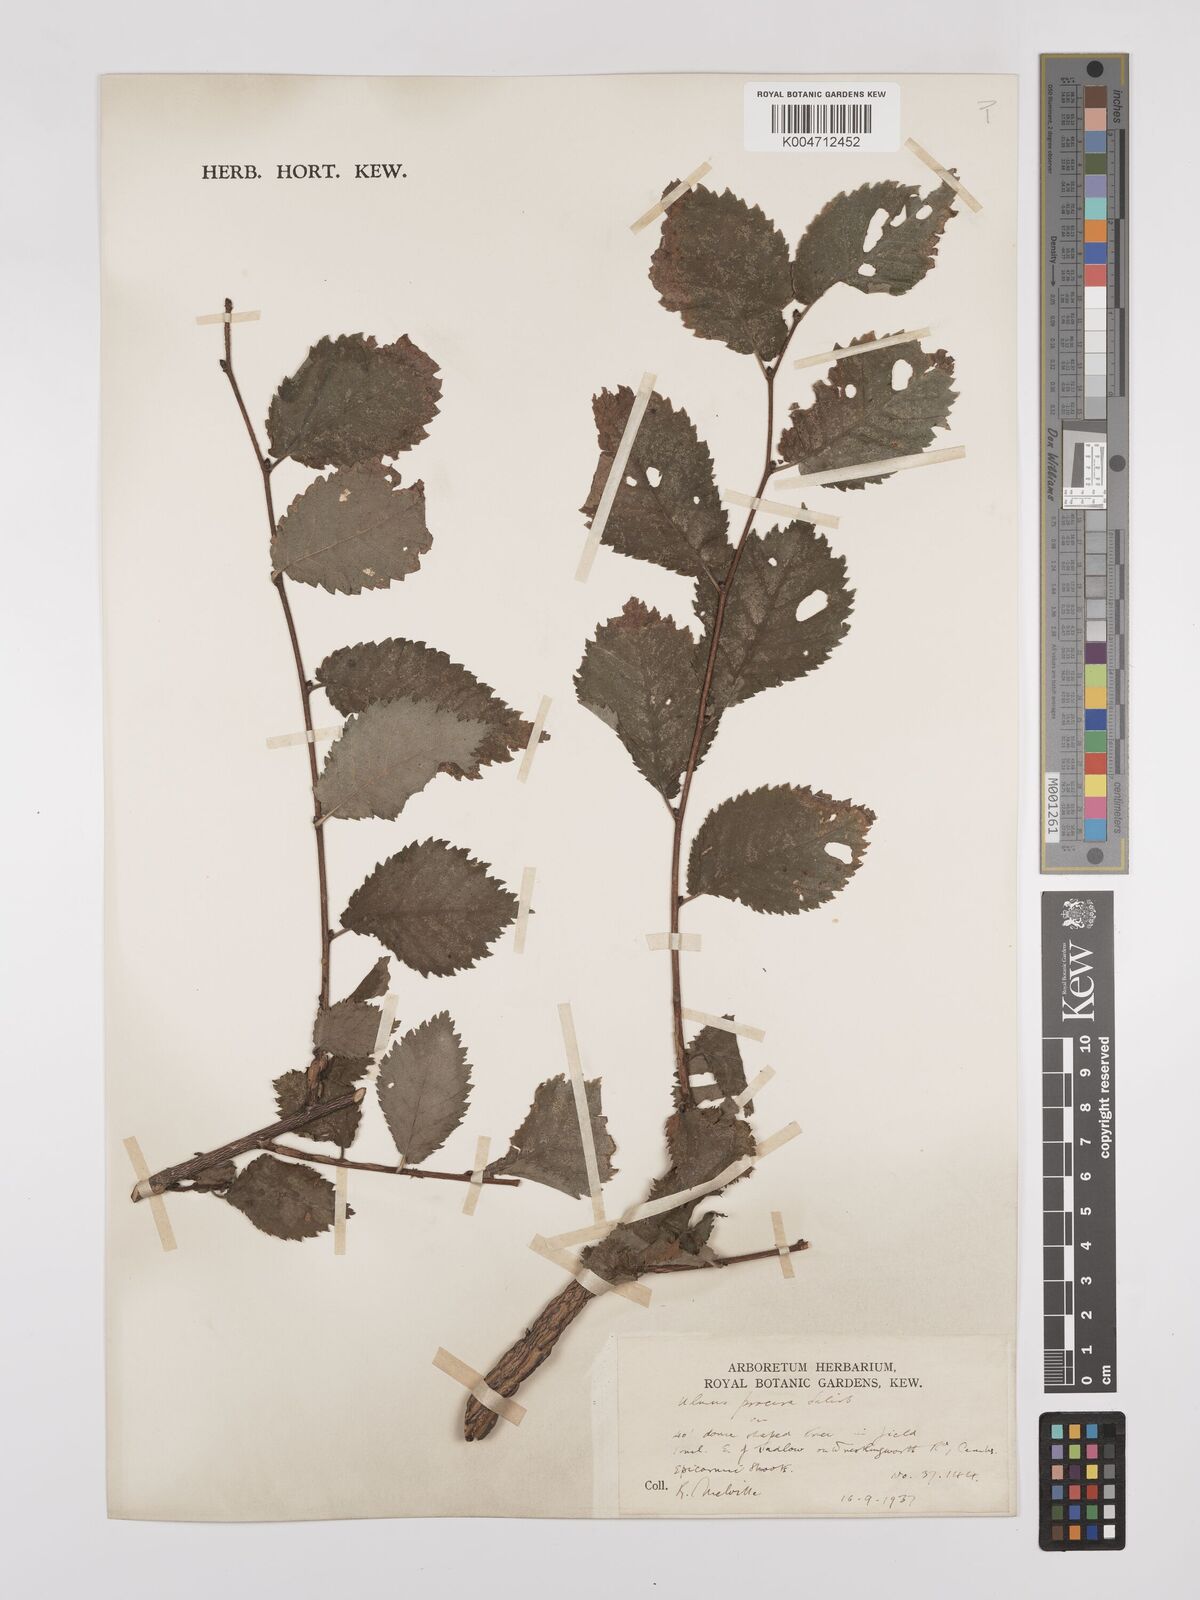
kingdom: Plantae
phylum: Tracheophyta
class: Magnoliopsida
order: Rosales
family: Ulmaceae
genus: Ulmus
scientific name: Ulmus minor
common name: Small-leaved elm
